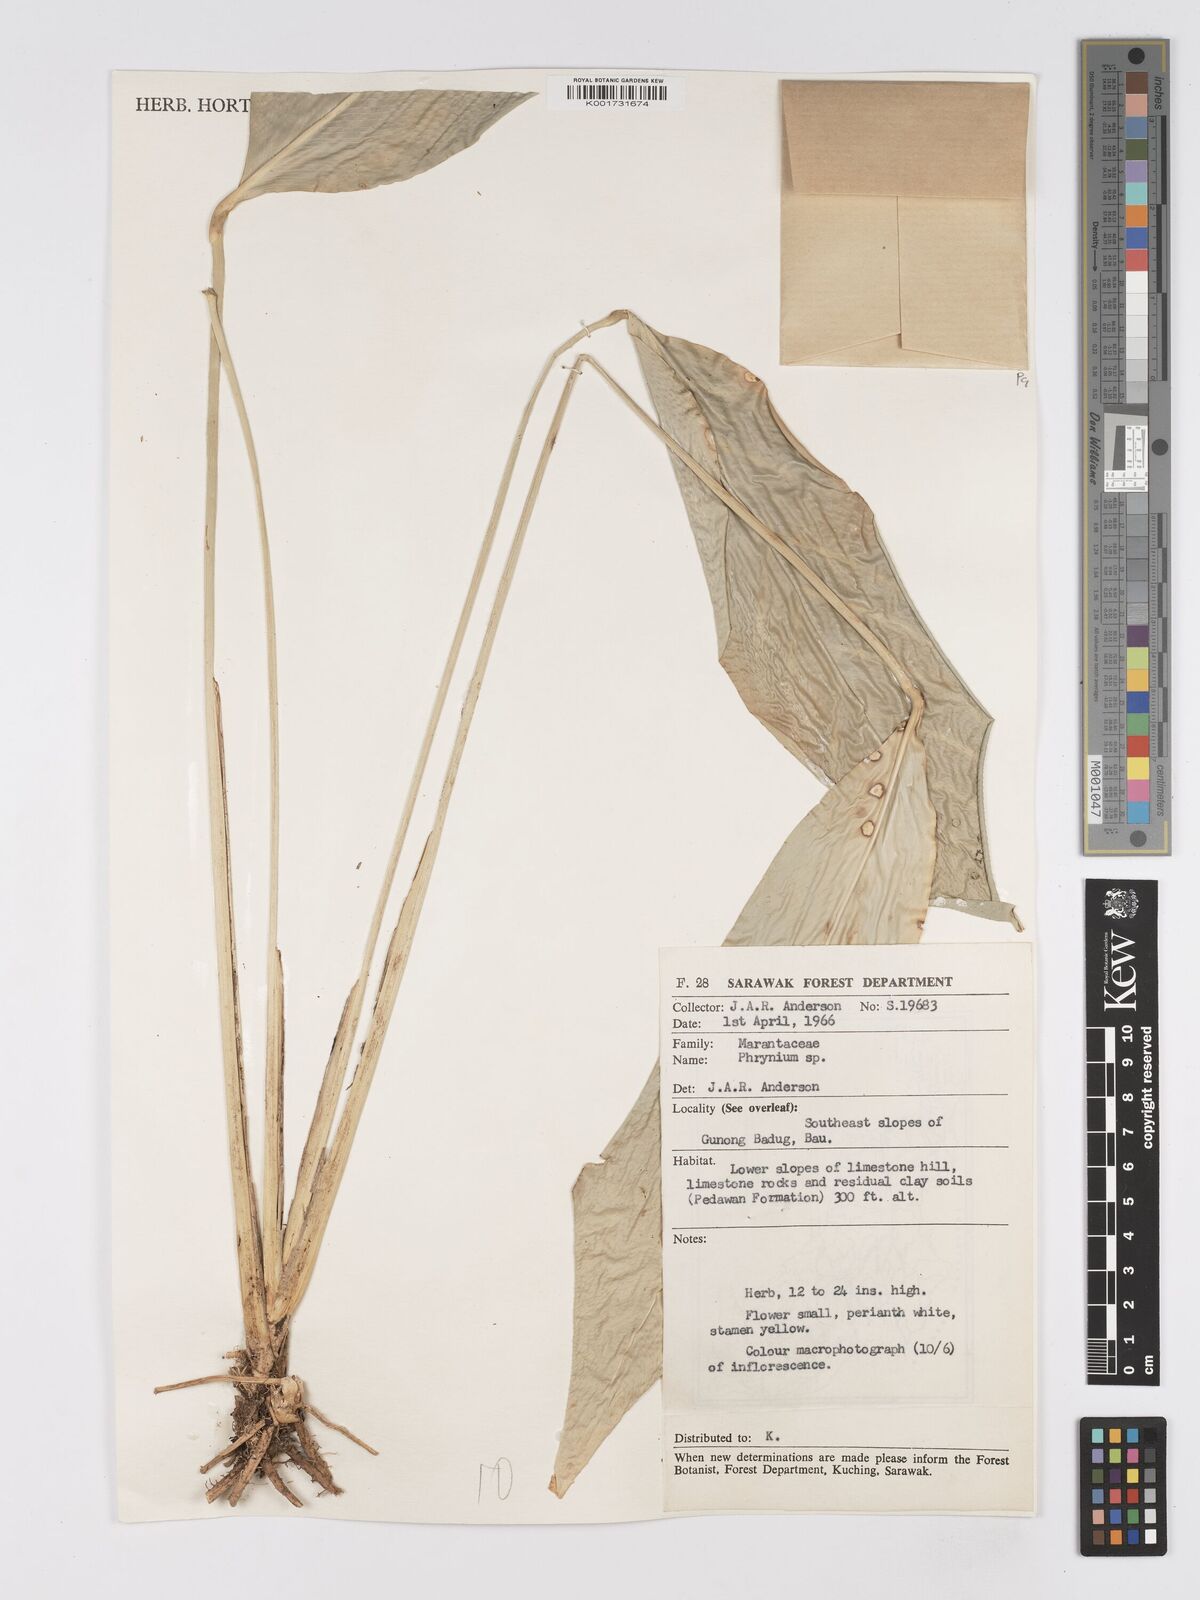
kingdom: Plantae
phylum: Tracheophyta
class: Liliopsida
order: Zingiberales
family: Marantaceae
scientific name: Marantaceae
